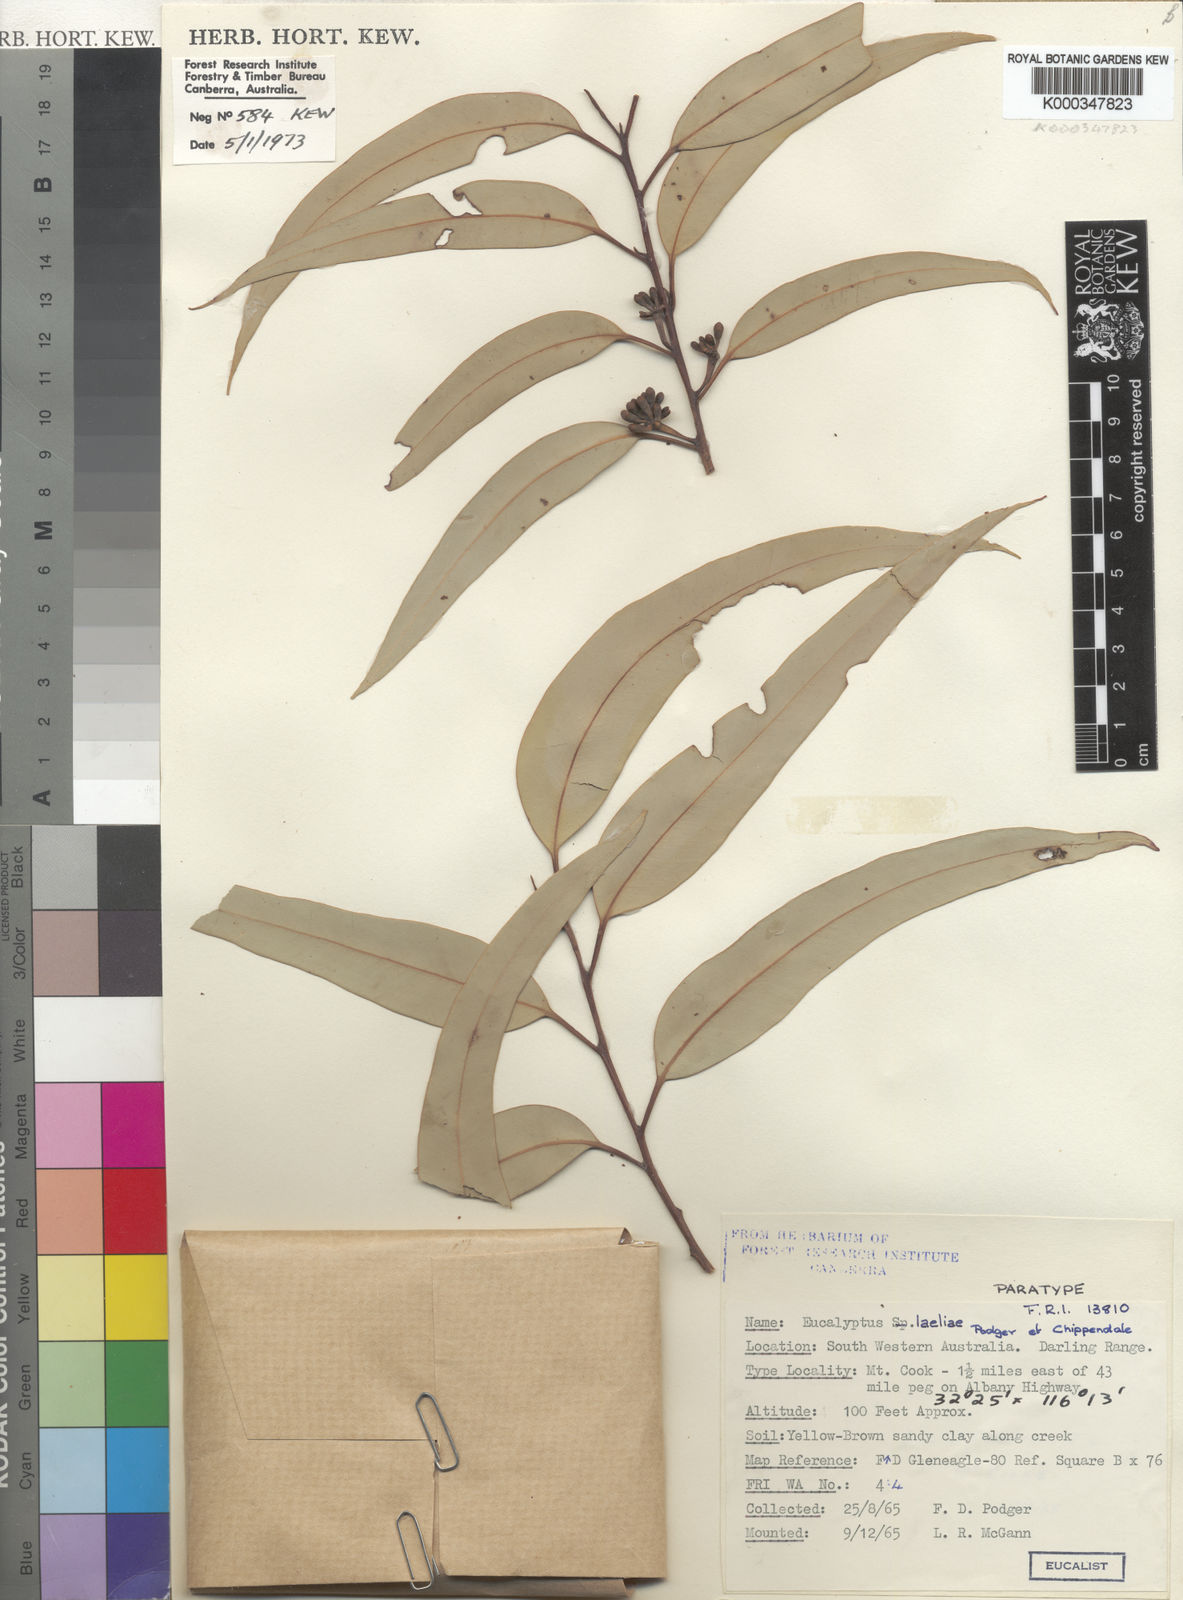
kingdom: Plantae
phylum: Tracheophyta
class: Magnoliopsida
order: Myrtales
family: Myrtaceae
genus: Eucalyptus
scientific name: Eucalyptus laeliae
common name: Darling range ghost gum
